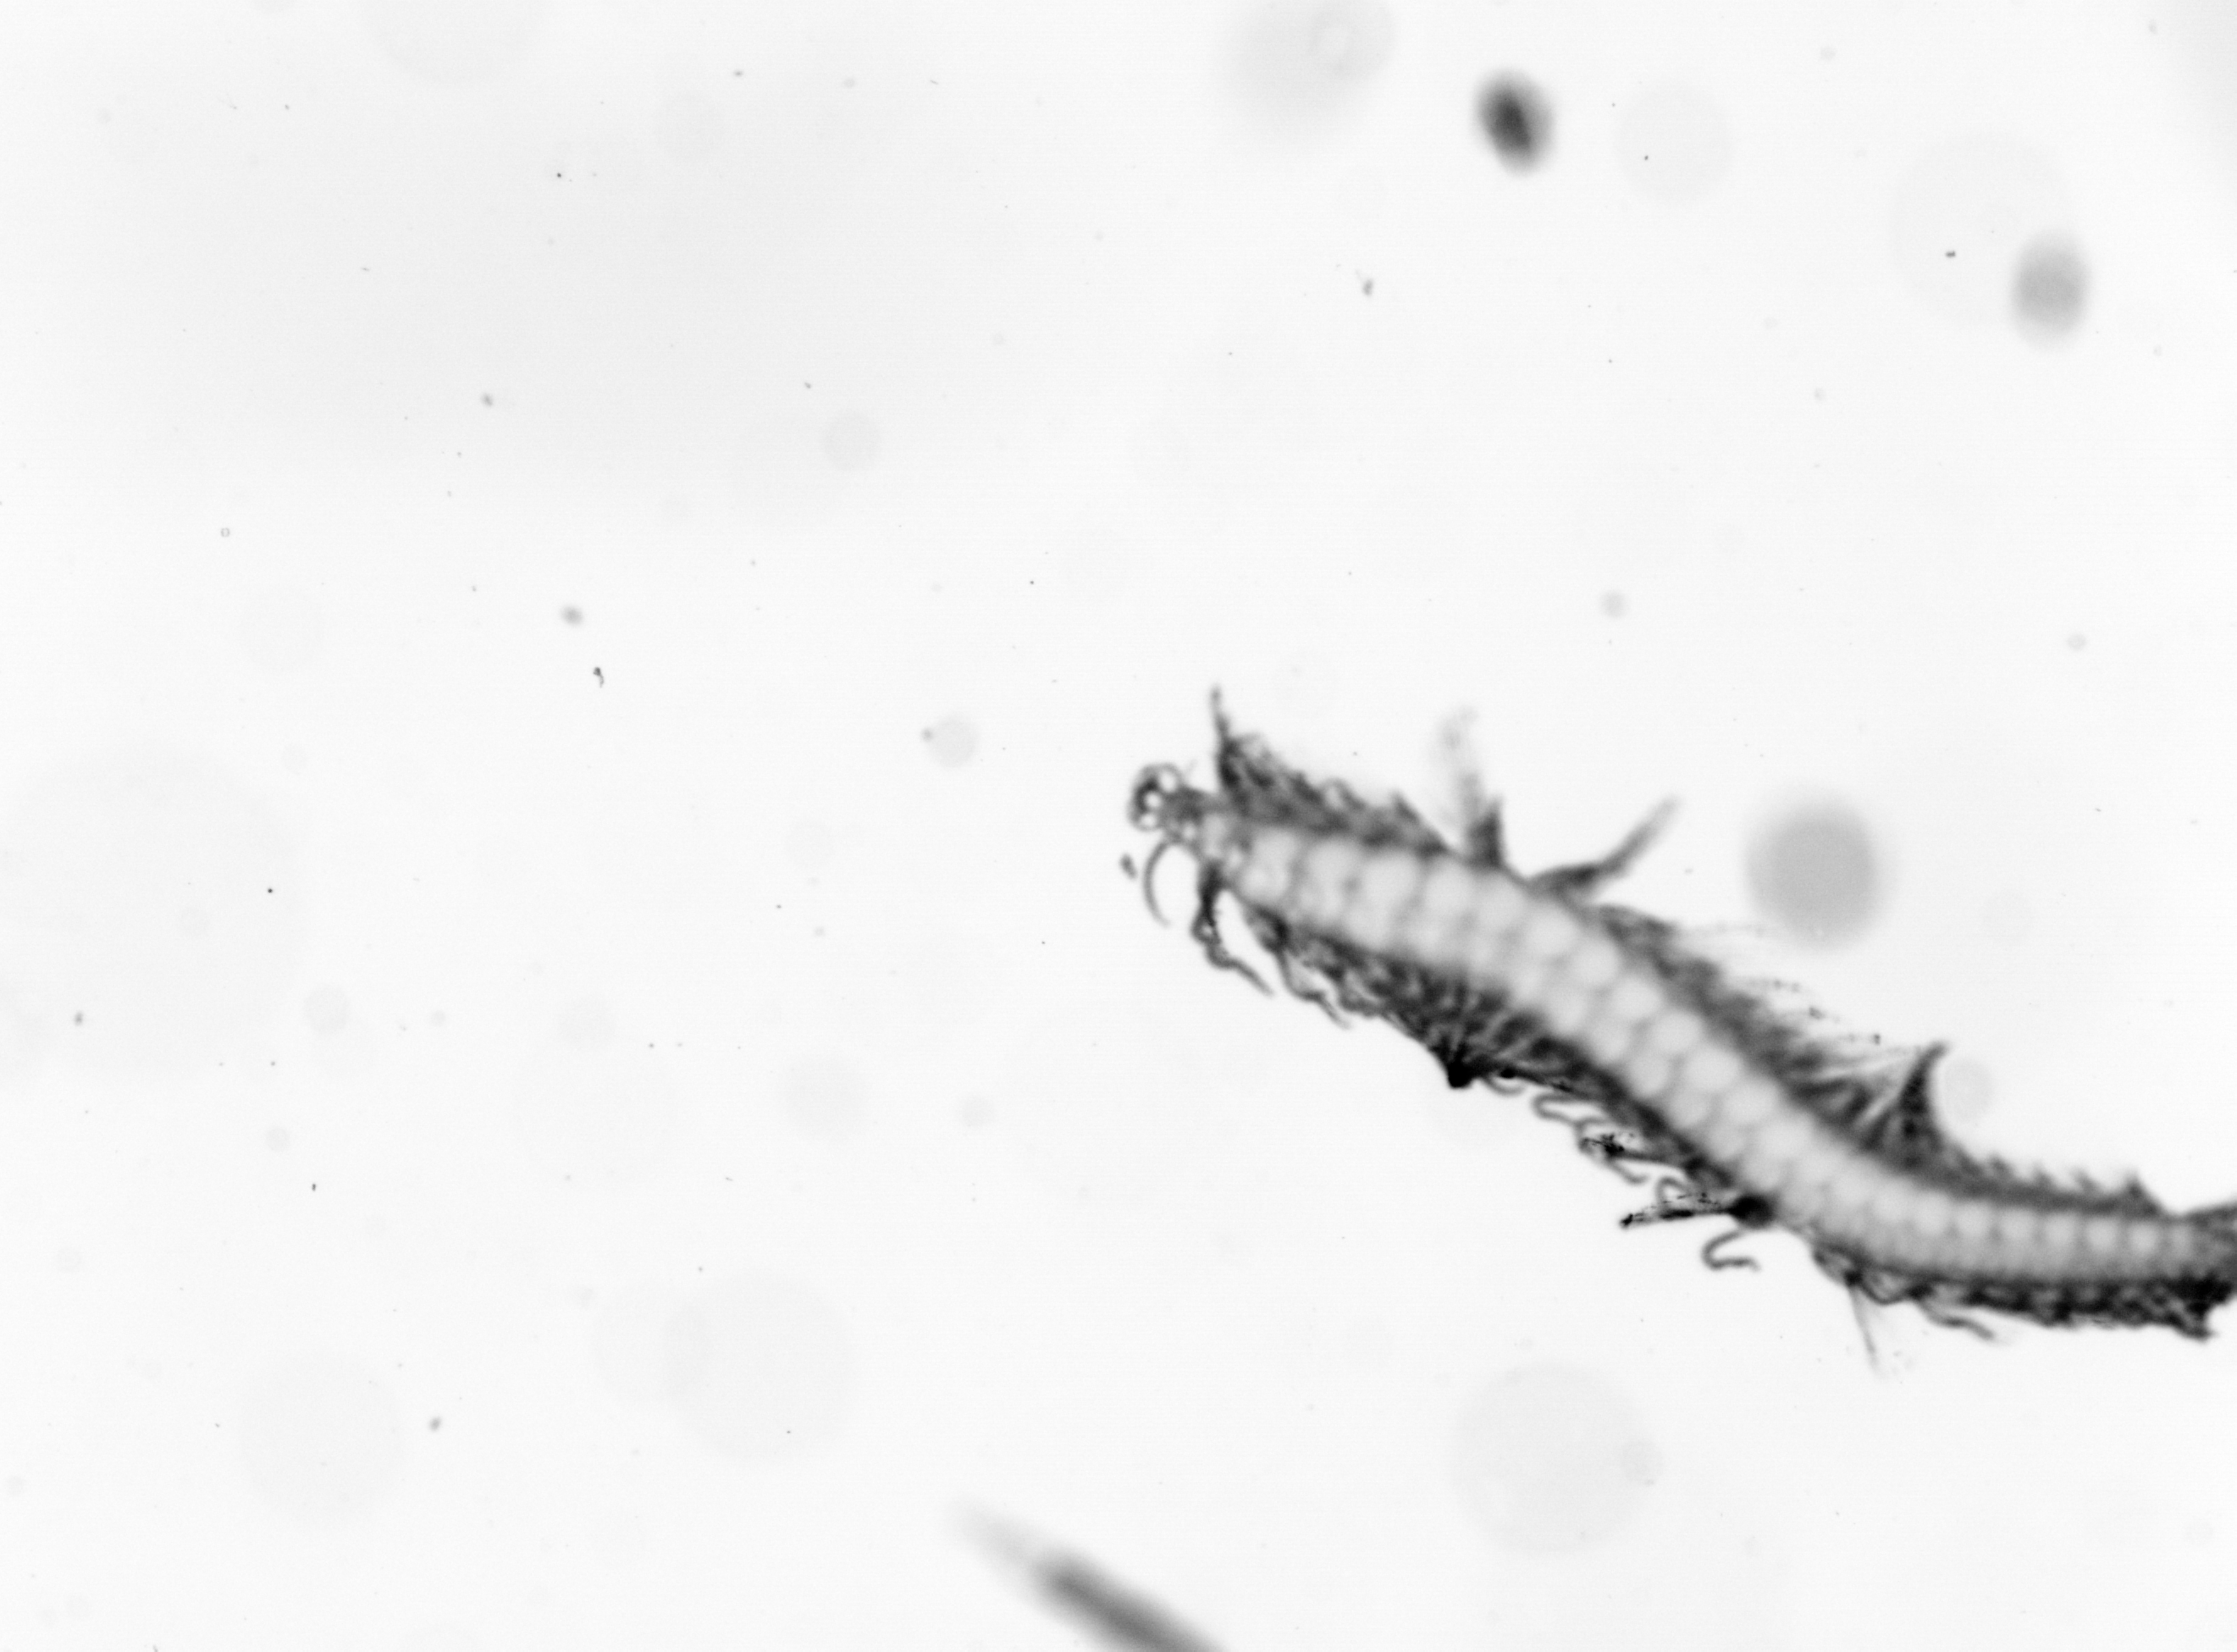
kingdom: Animalia
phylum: Annelida
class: Polychaeta
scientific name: Polychaeta
